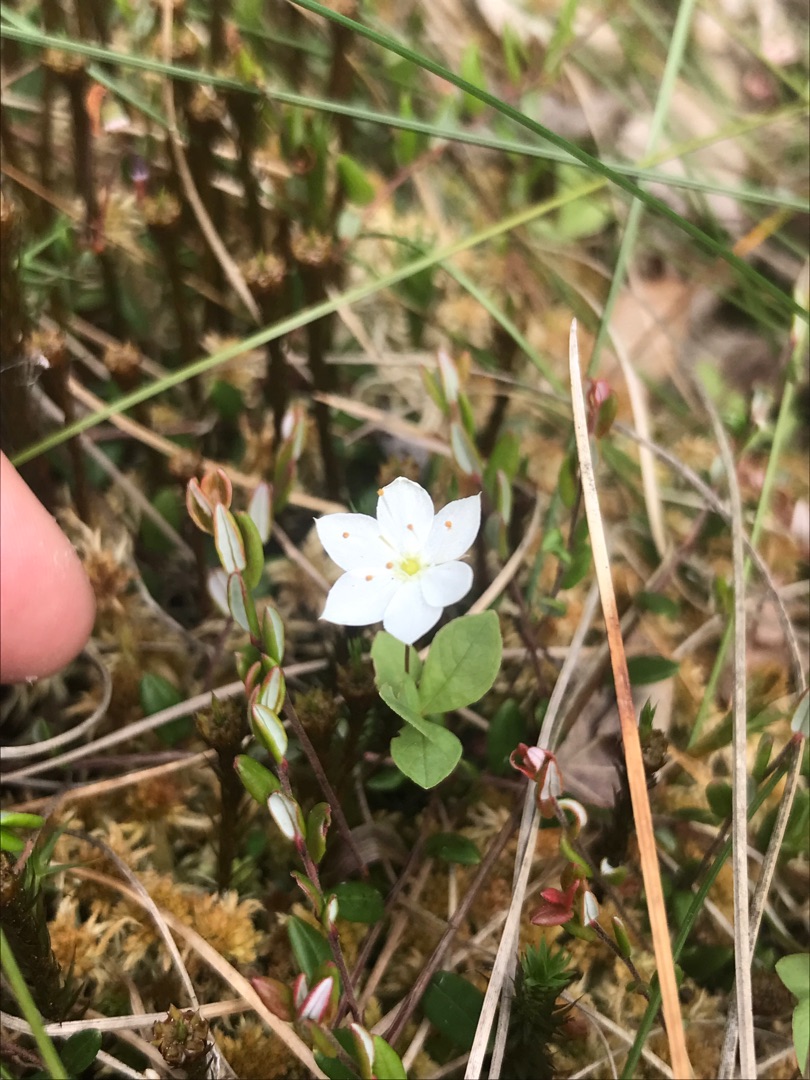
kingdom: Plantae
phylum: Tracheophyta
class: Magnoliopsida
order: Ericales
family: Primulaceae
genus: Lysimachia
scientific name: Lysimachia europaea
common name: Skovstjerne
